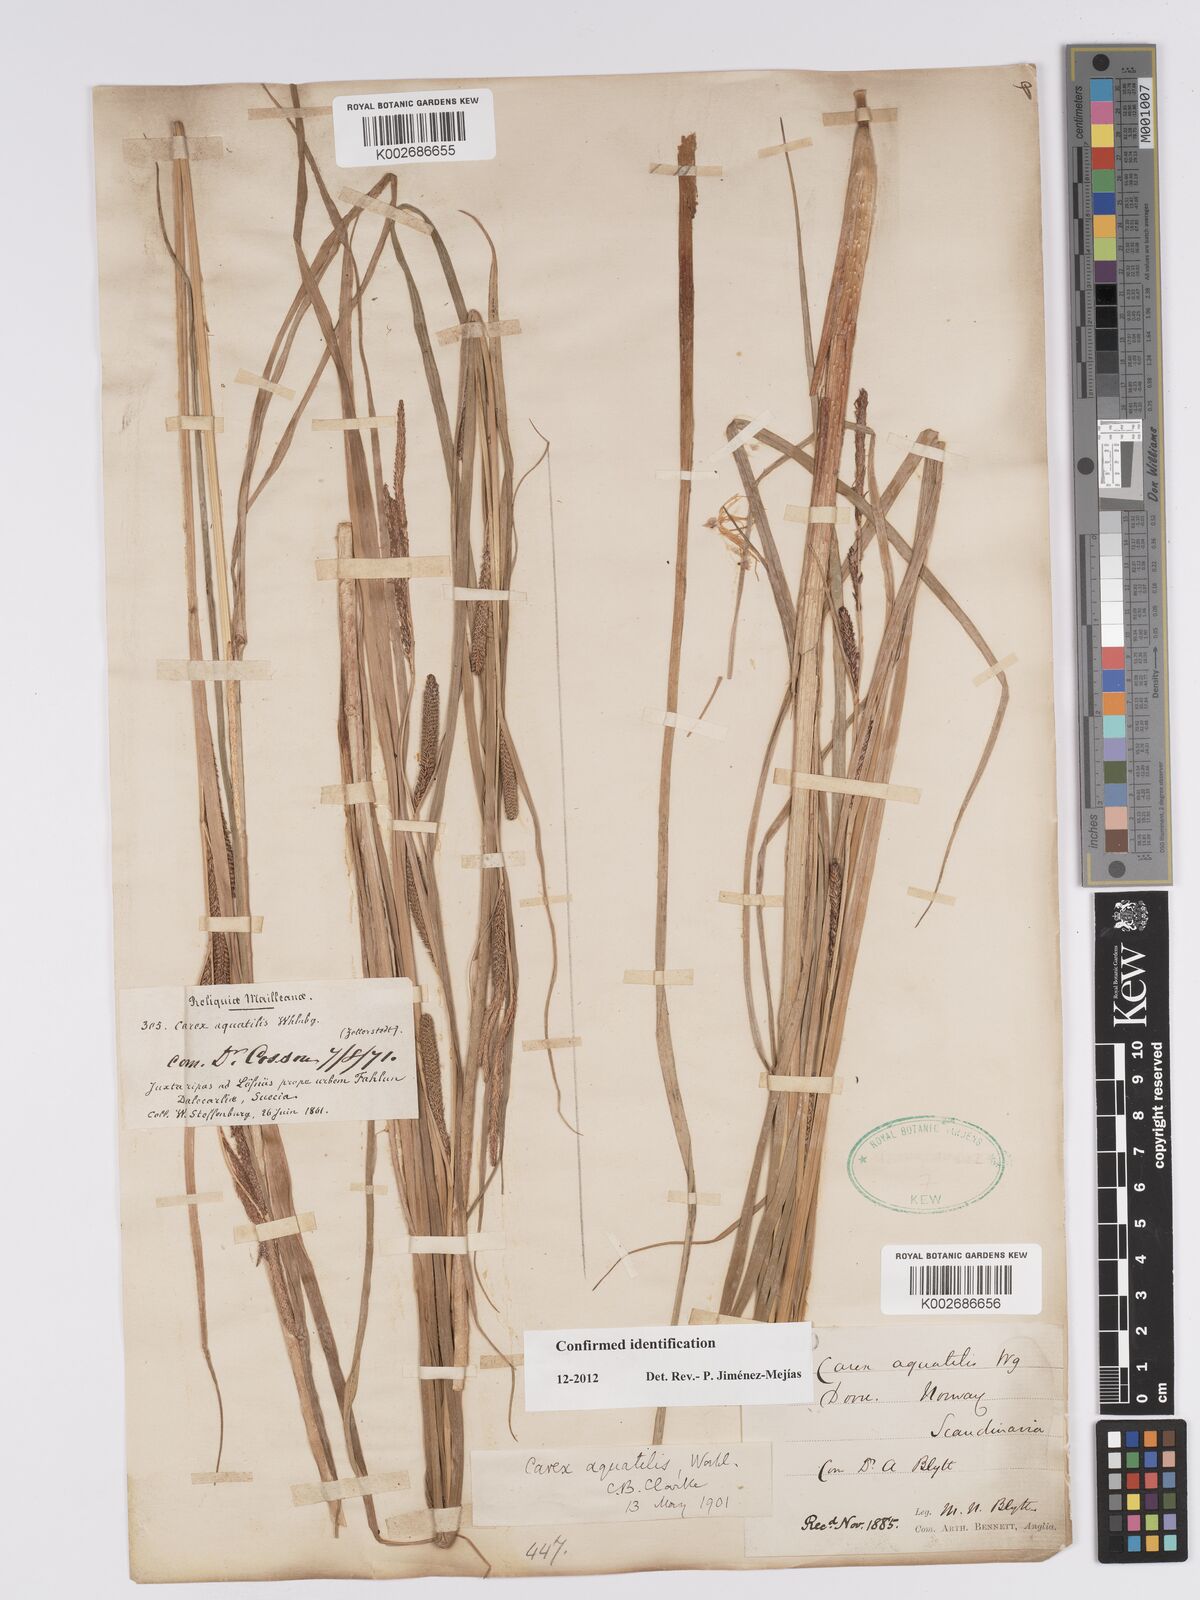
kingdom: Plantae
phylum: Tracheophyta
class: Liliopsida
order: Poales
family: Cyperaceae
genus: Carex
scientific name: Carex aquatilis
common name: Water sedge
